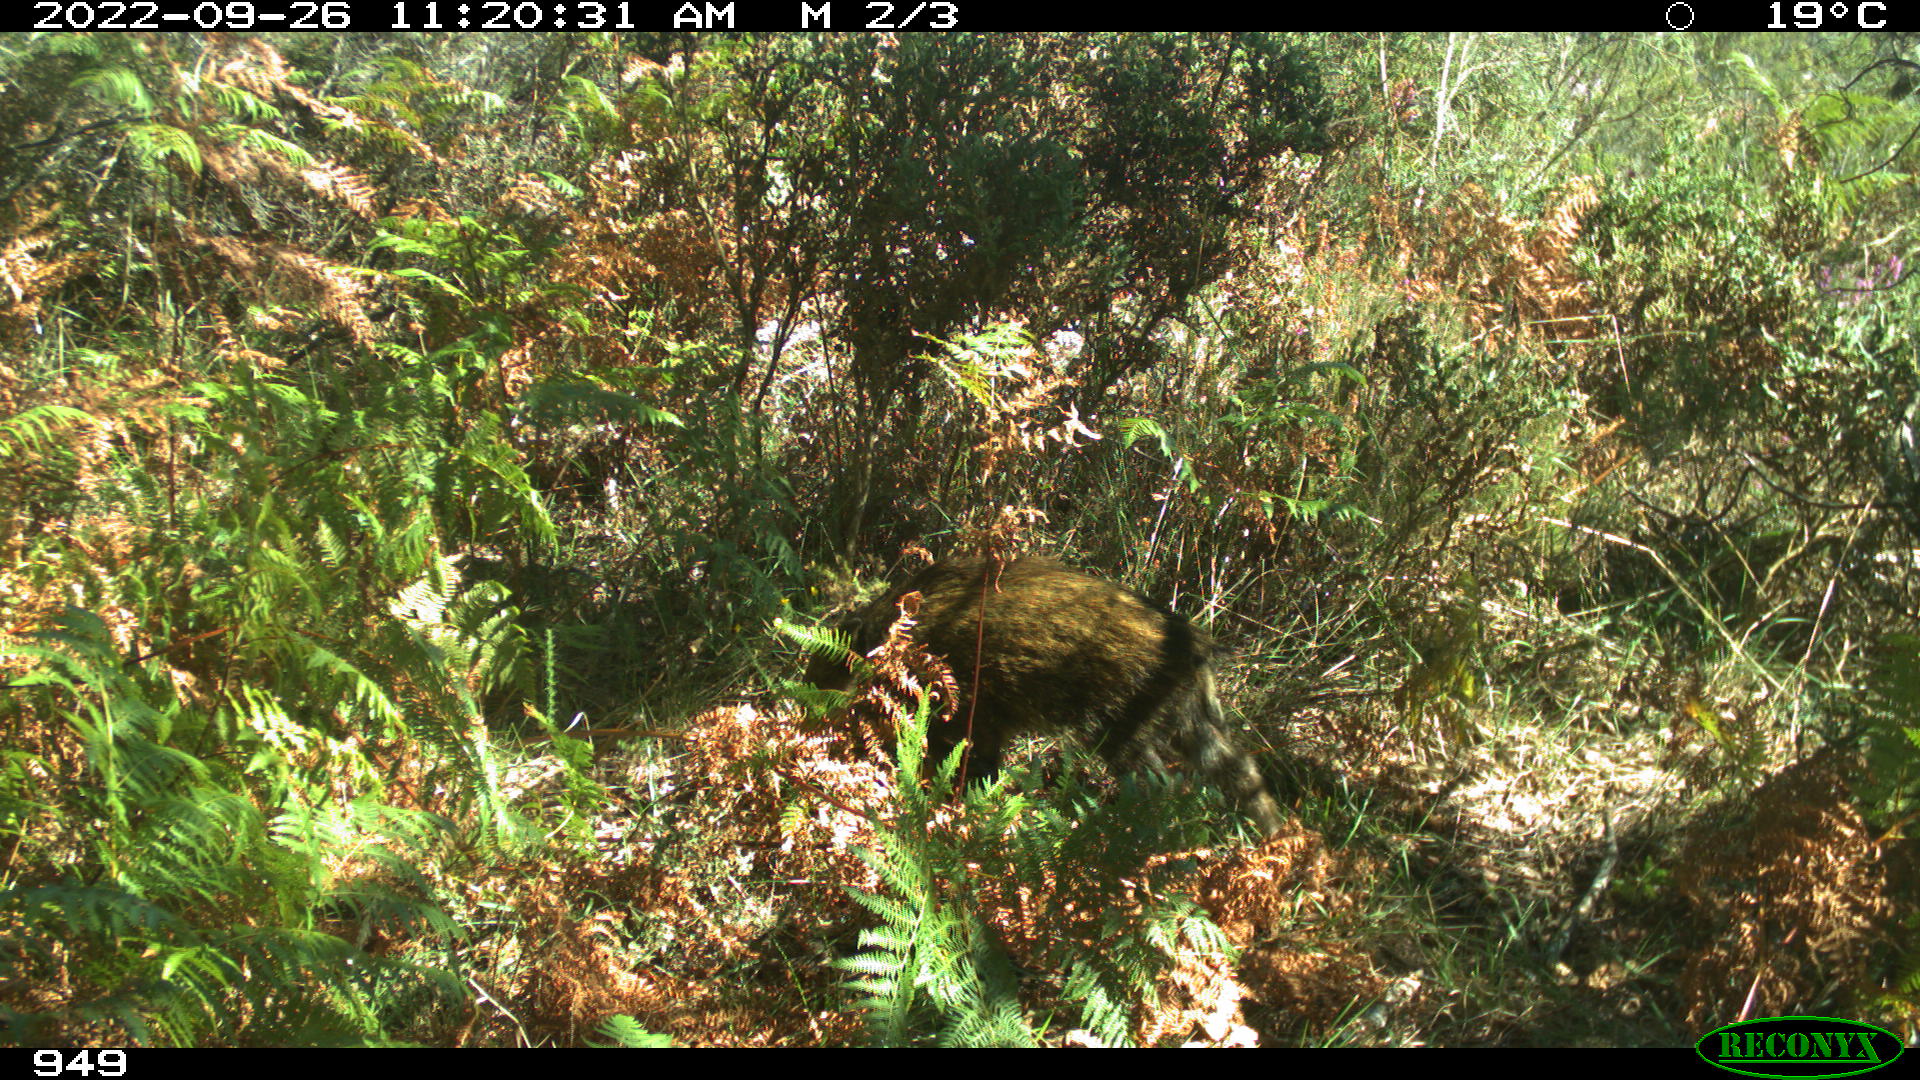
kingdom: Animalia
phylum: Chordata
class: Mammalia
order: Artiodactyla
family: Suidae
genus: Sus
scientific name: Sus scrofa
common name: Wild boar
